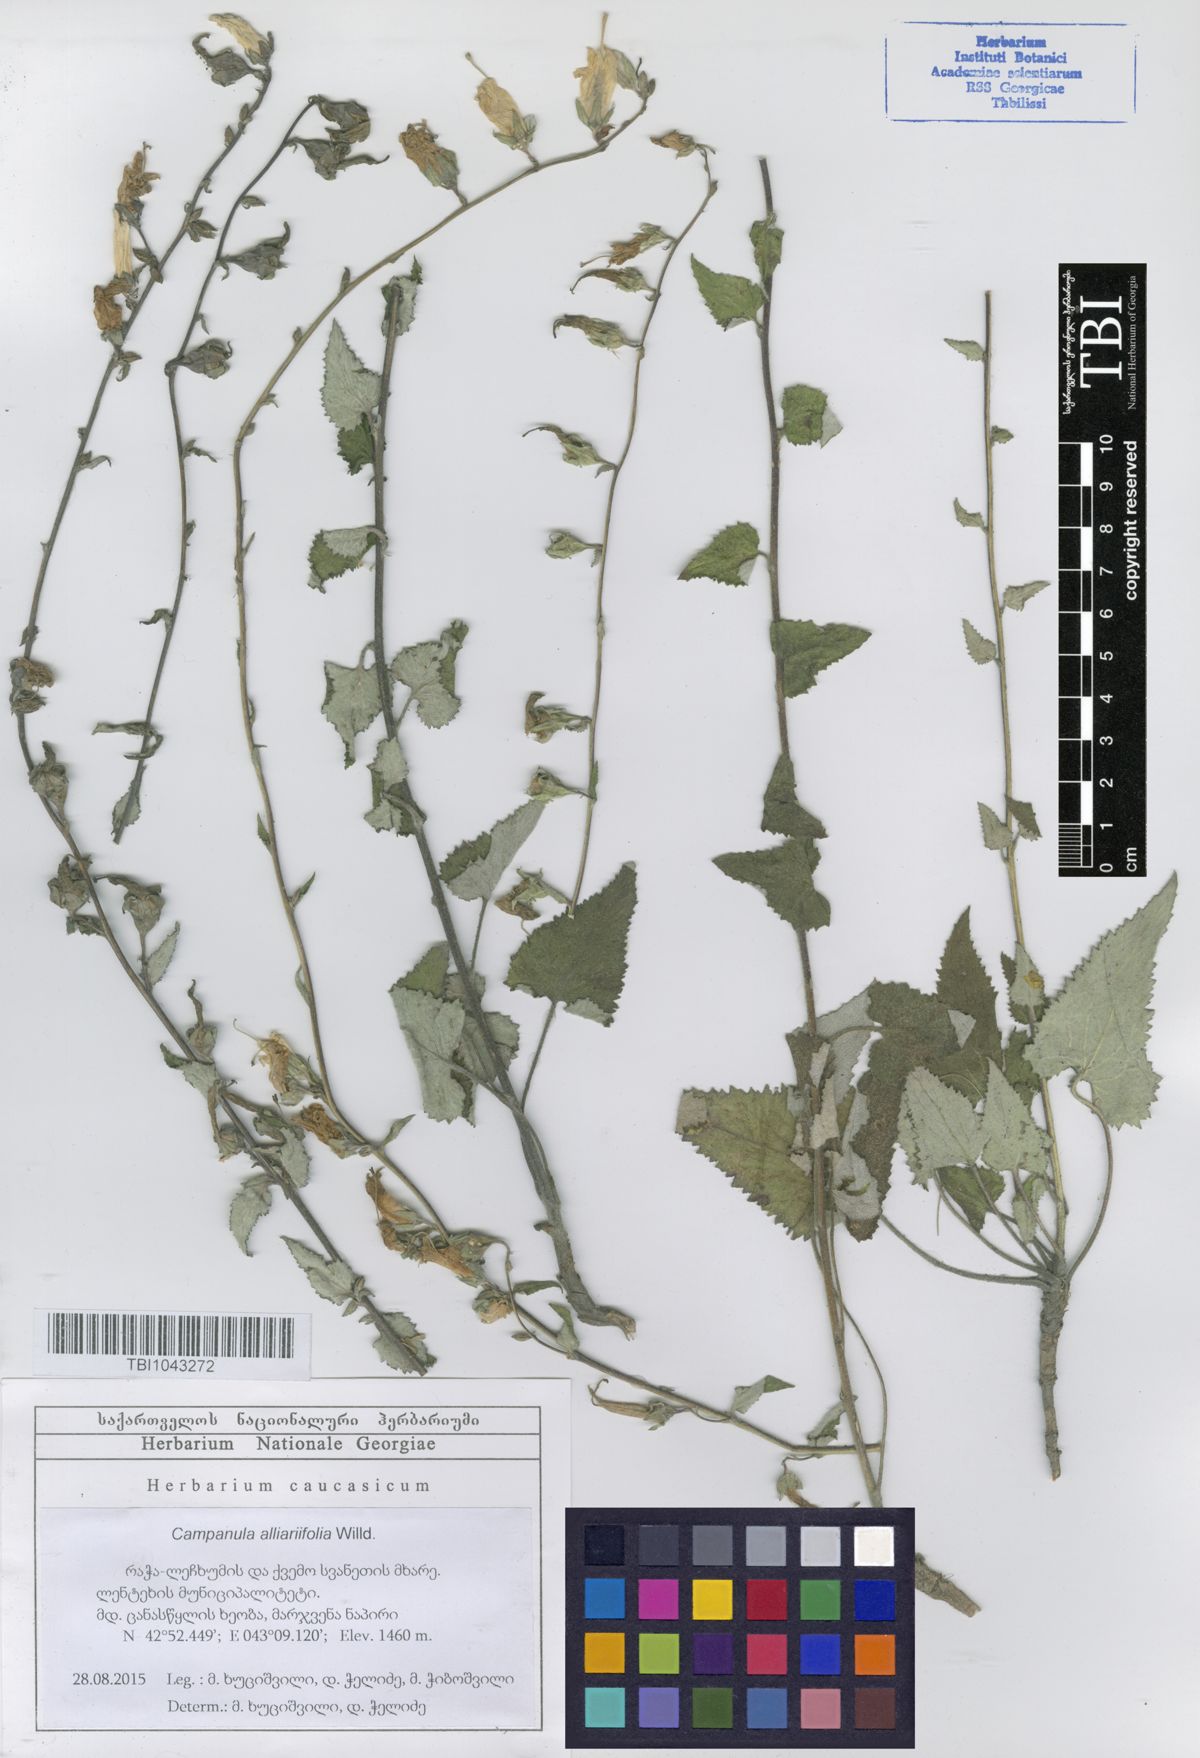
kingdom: Plantae
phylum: Tracheophyta
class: Magnoliopsida
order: Asterales
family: Campanulaceae
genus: Campanula
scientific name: Campanula alliariifolia
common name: Cornish bellflower
